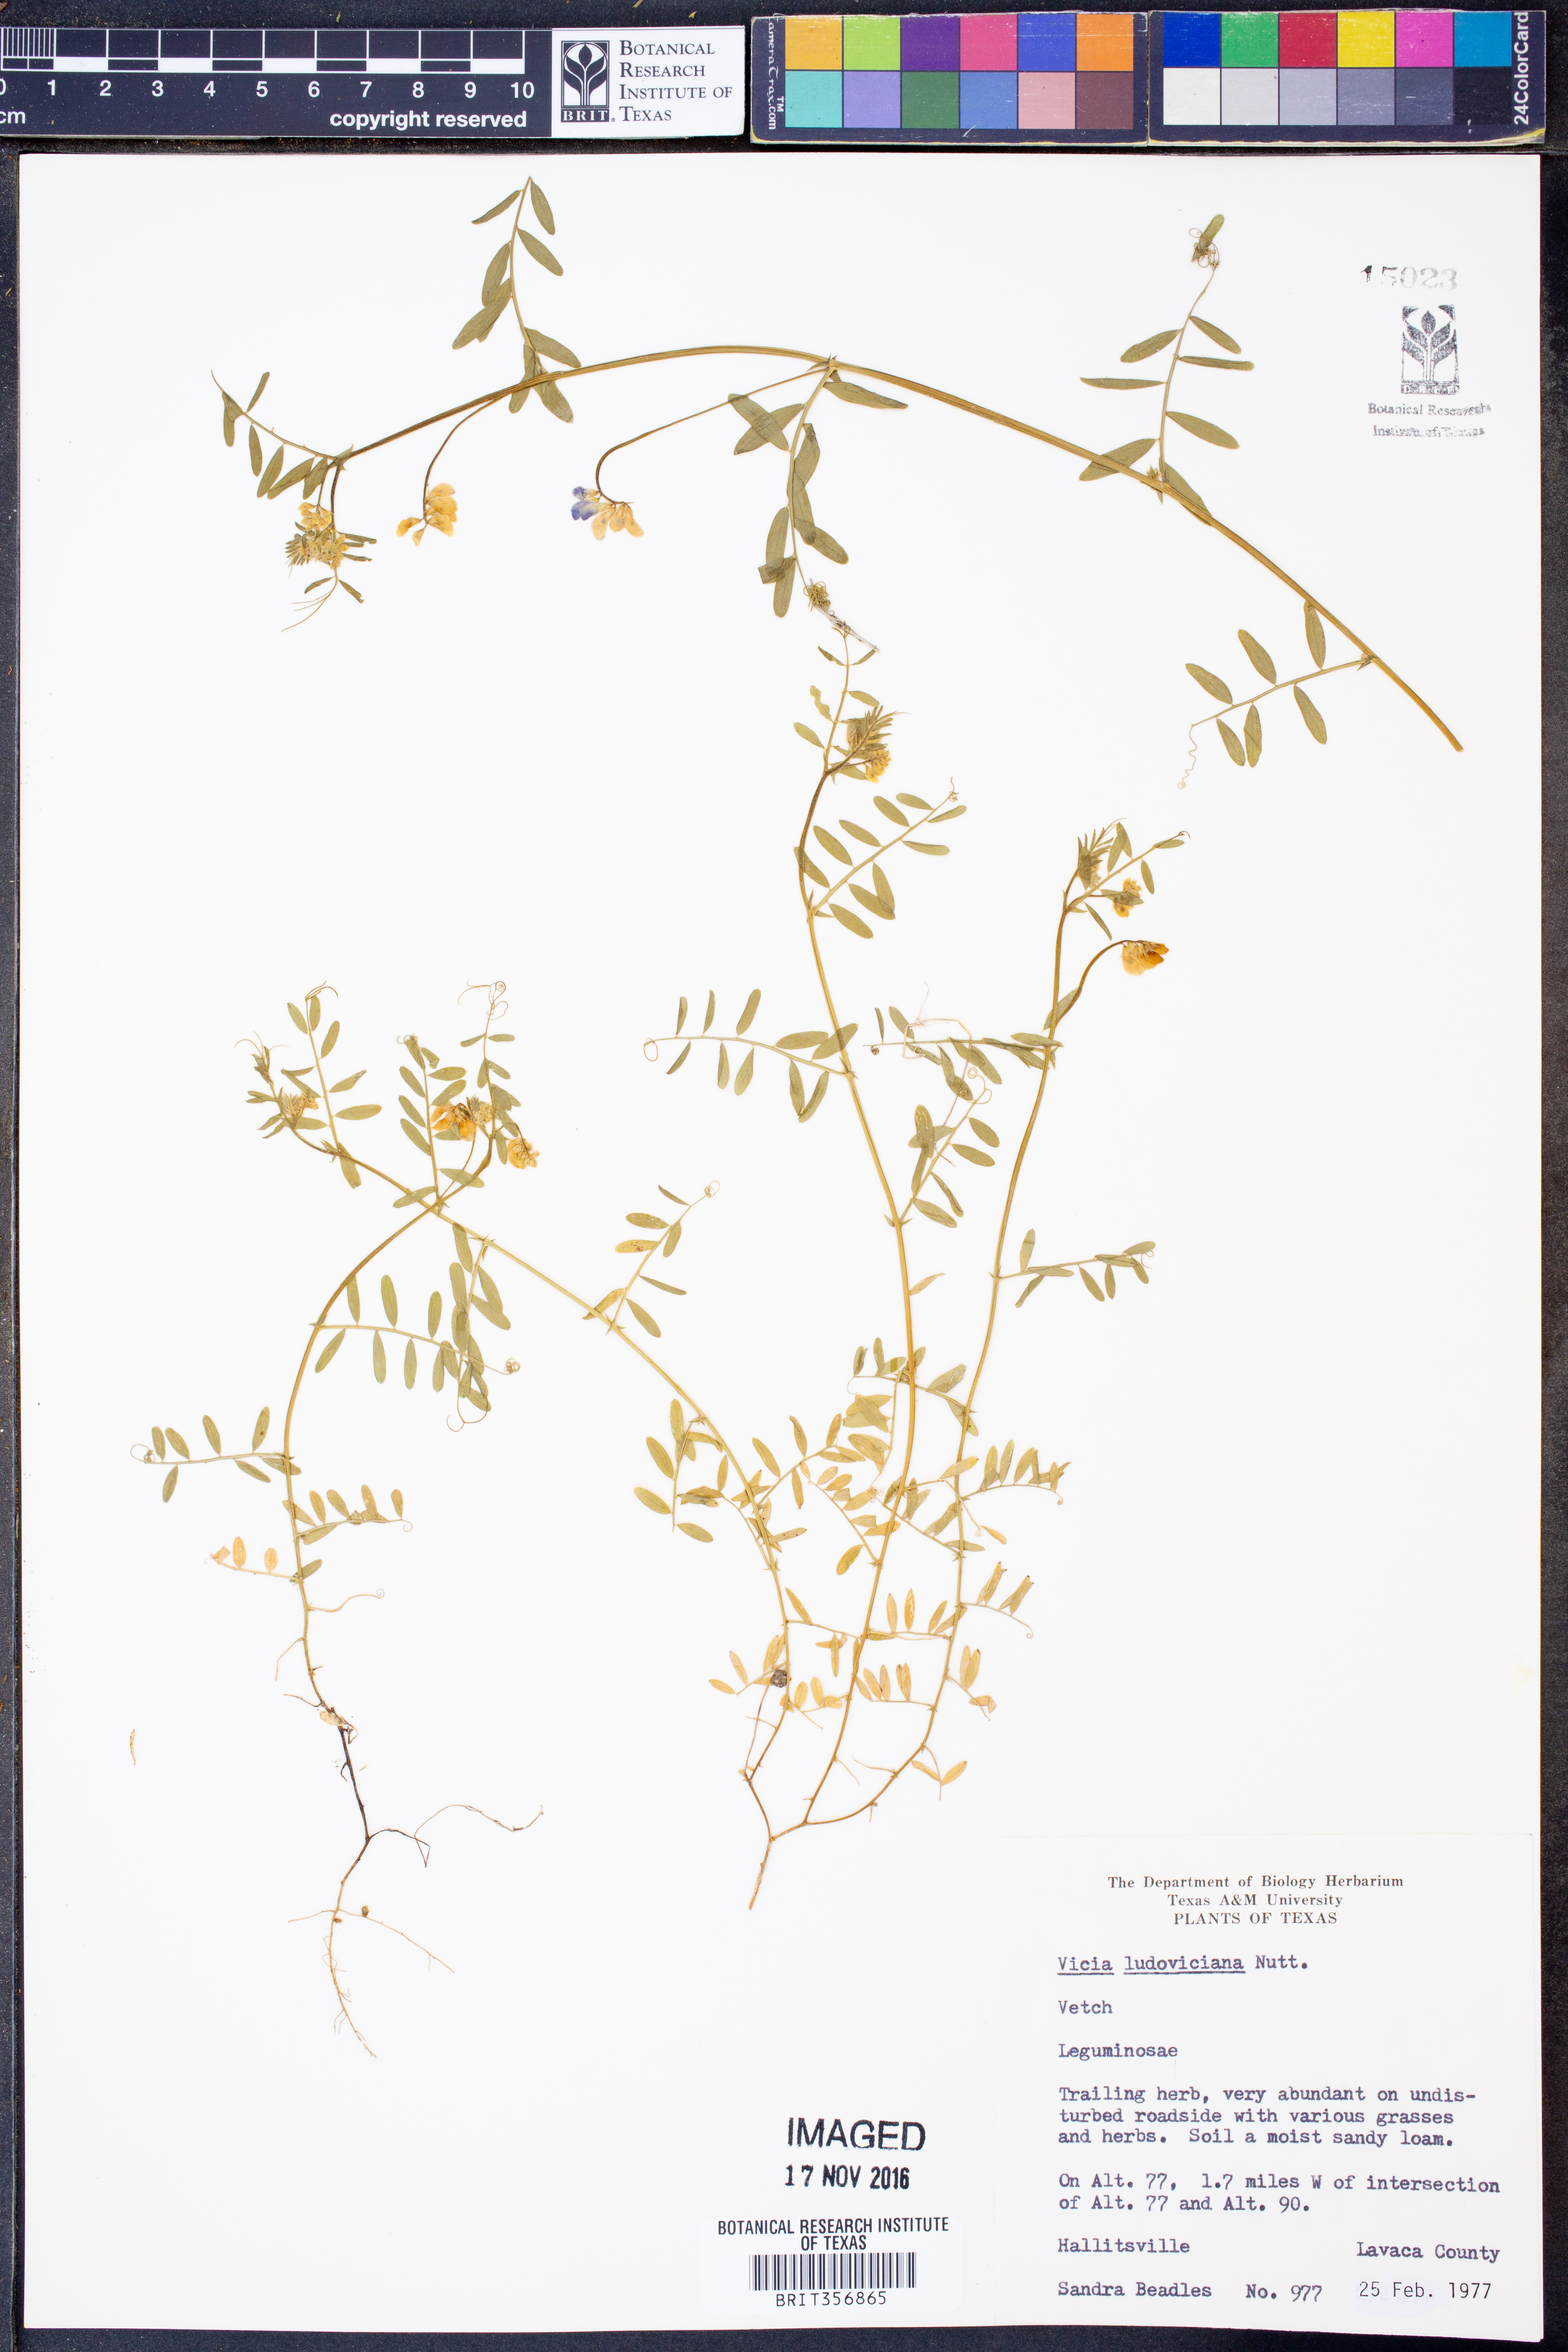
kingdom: Plantae
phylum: Tracheophyta
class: Magnoliopsida
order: Fabales
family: Fabaceae
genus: Vicia
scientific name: Vicia ludoviciana
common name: Louisiana vetch
